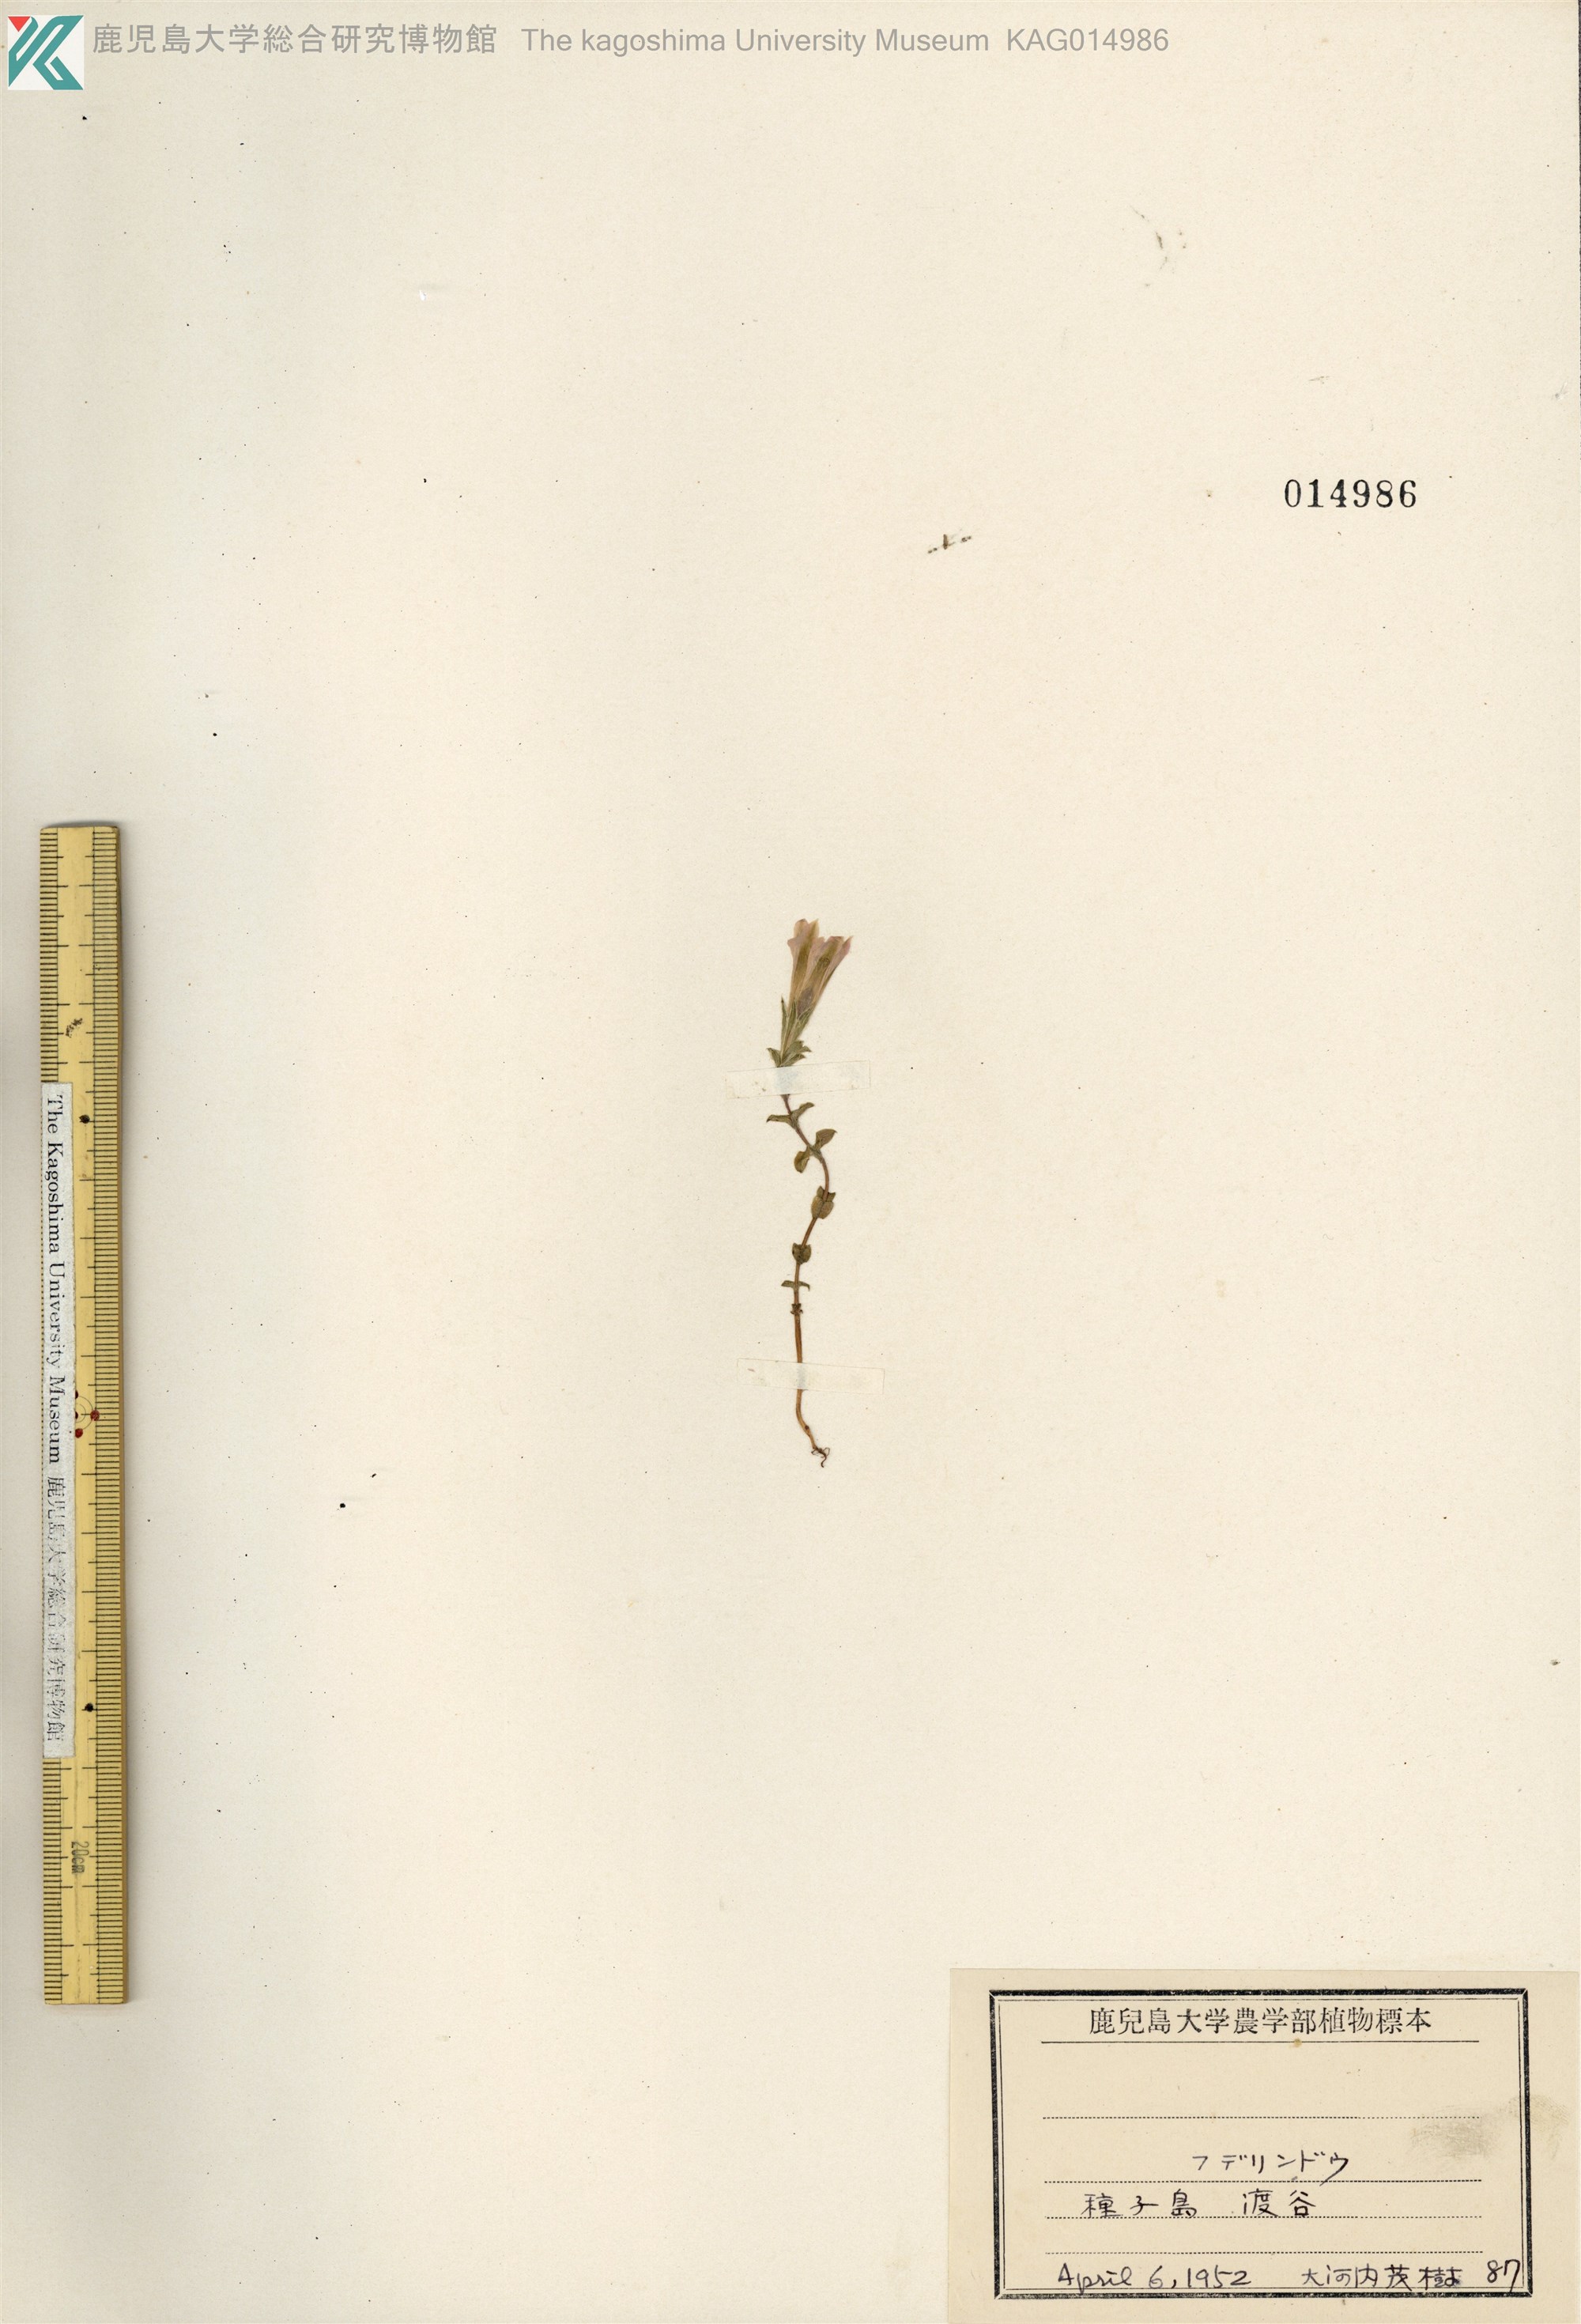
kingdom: Plantae
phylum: Tracheophyta
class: Magnoliopsida
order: Gentianales
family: Gentianaceae
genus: Gentiana
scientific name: Gentiana zollingeri
